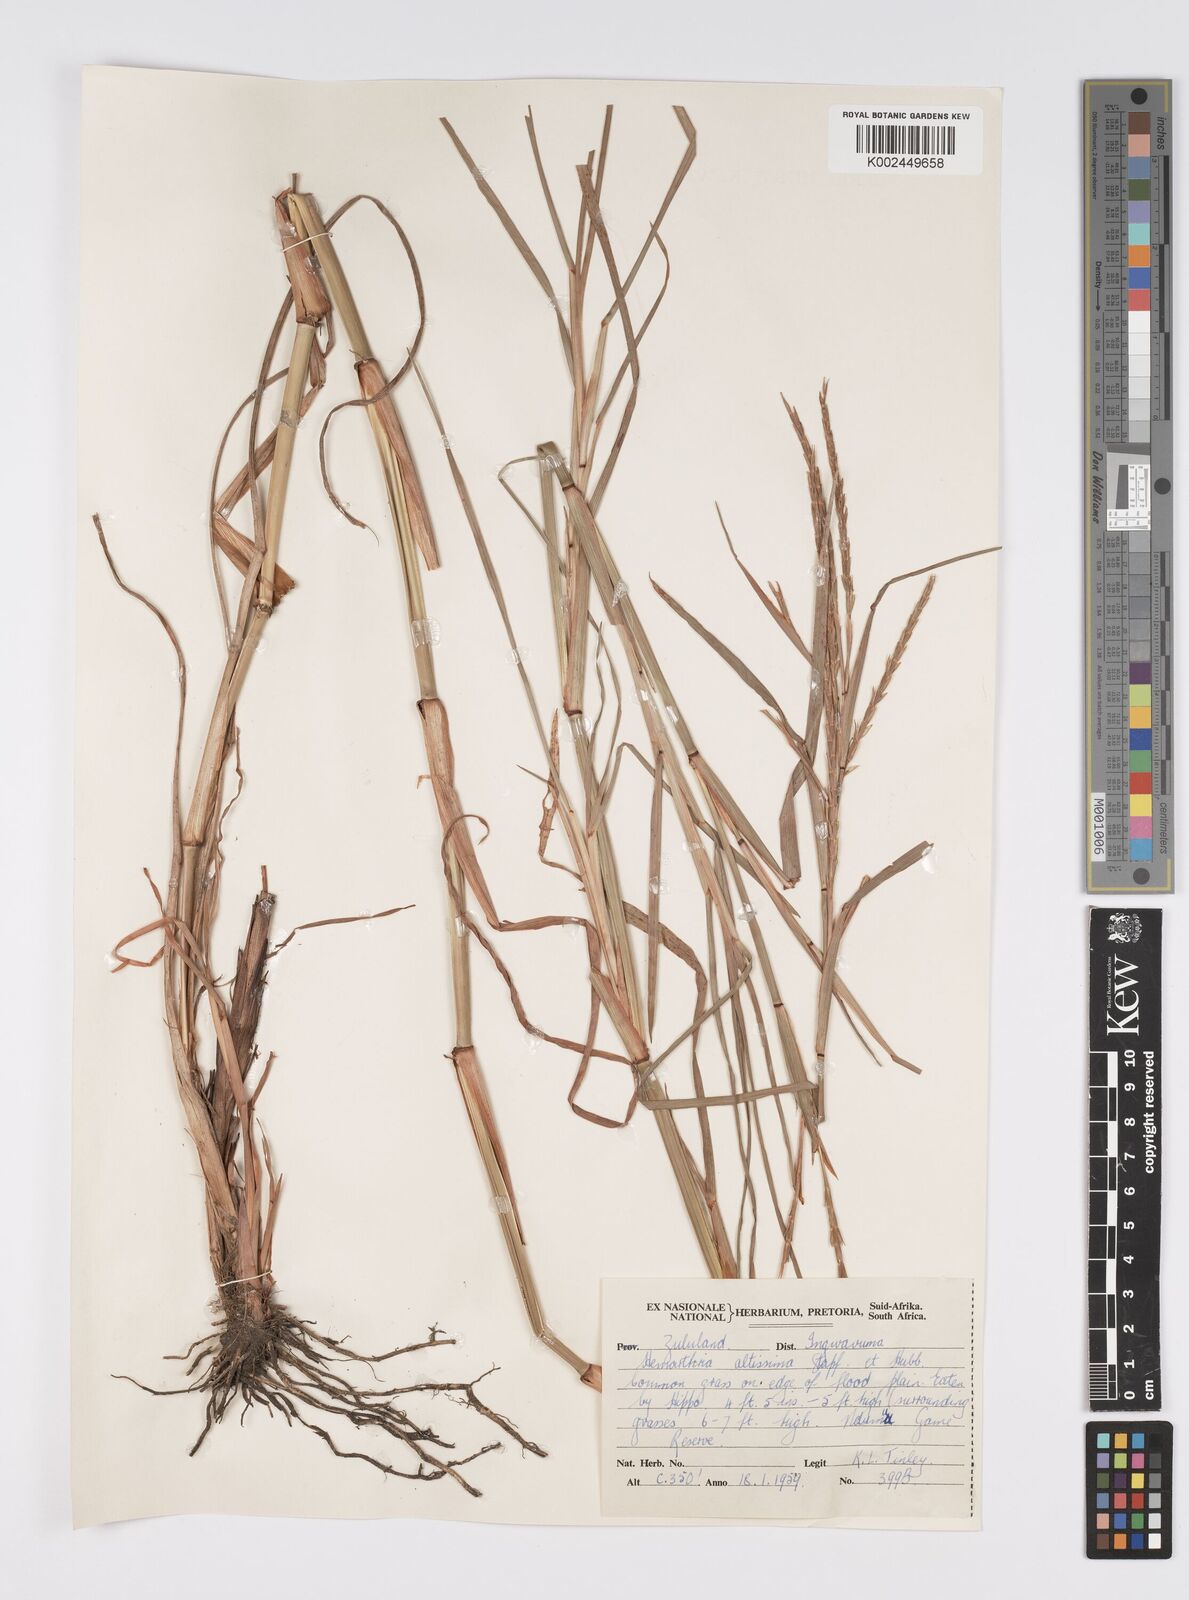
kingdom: Plantae
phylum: Tracheophyta
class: Liliopsida
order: Poales
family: Poaceae
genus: Hemarthria
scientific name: Hemarthria altissima
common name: African jointgrass
